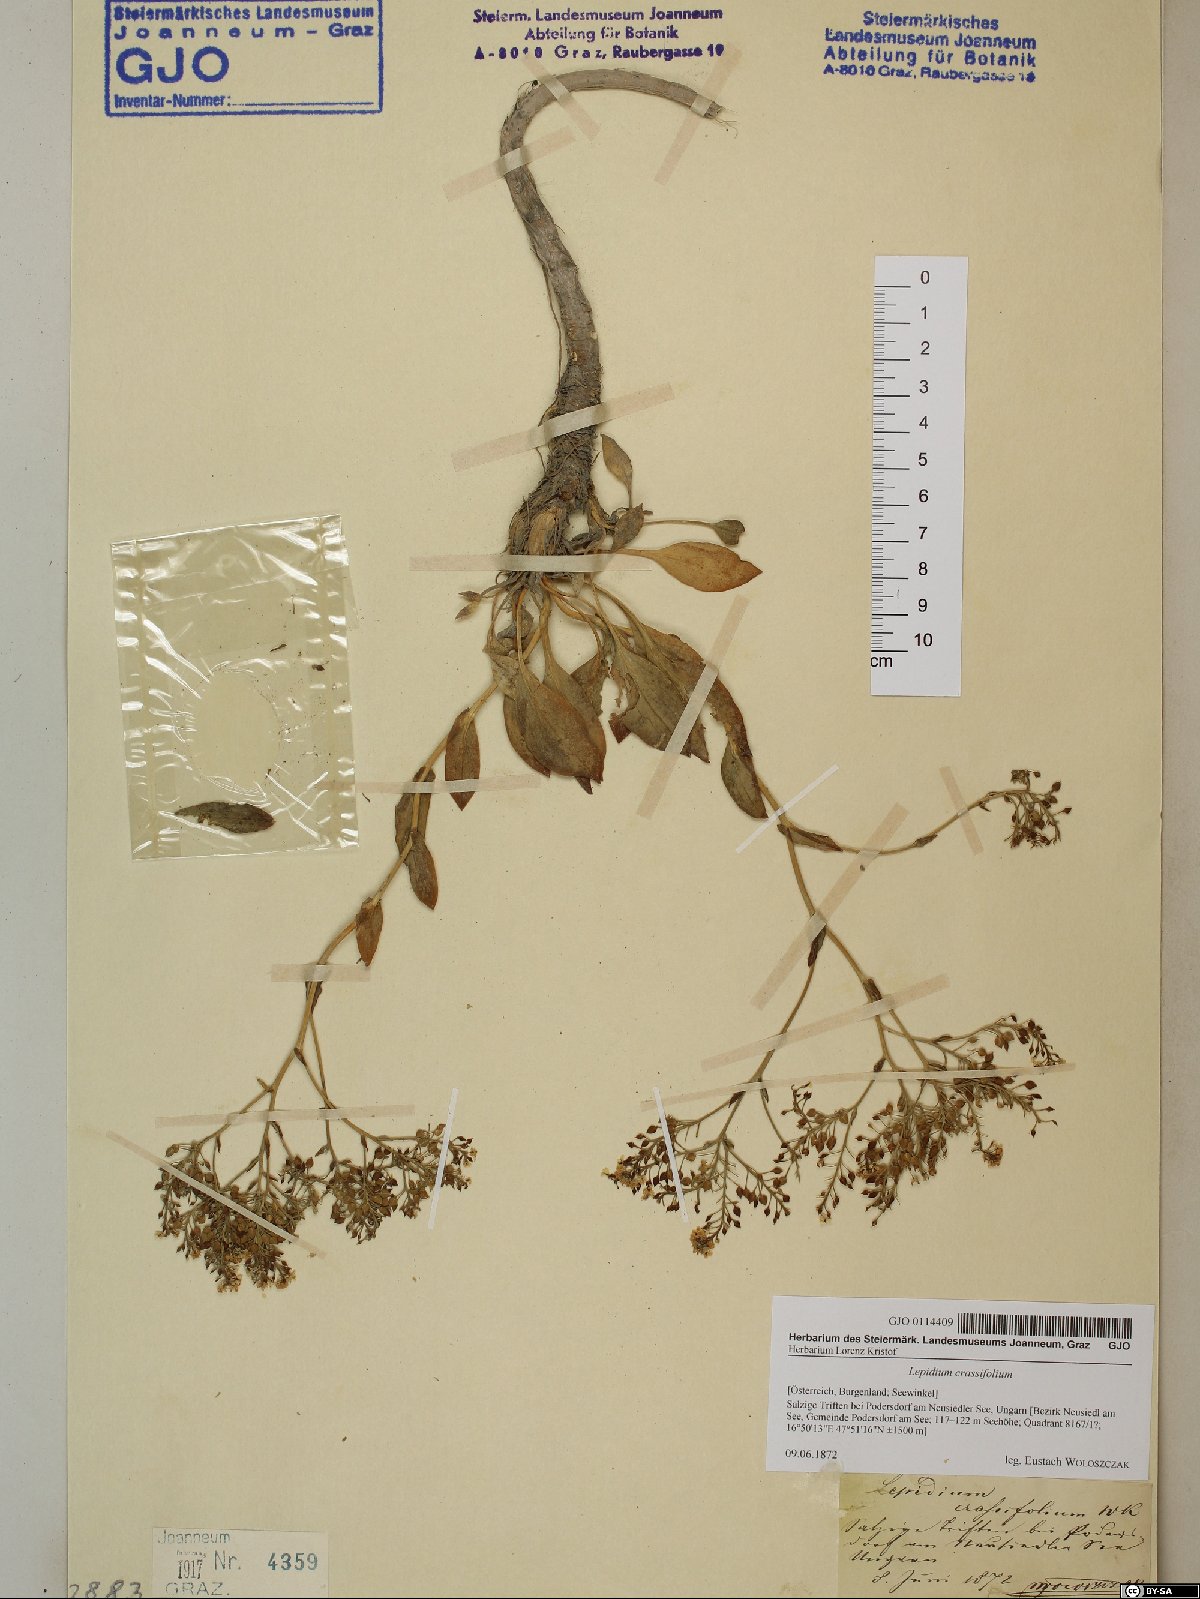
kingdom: Plantae
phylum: Tracheophyta
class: Magnoliopsida
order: Brassicales
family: Brassicaceae
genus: Lepidium
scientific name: Lepidium cartilagineum
